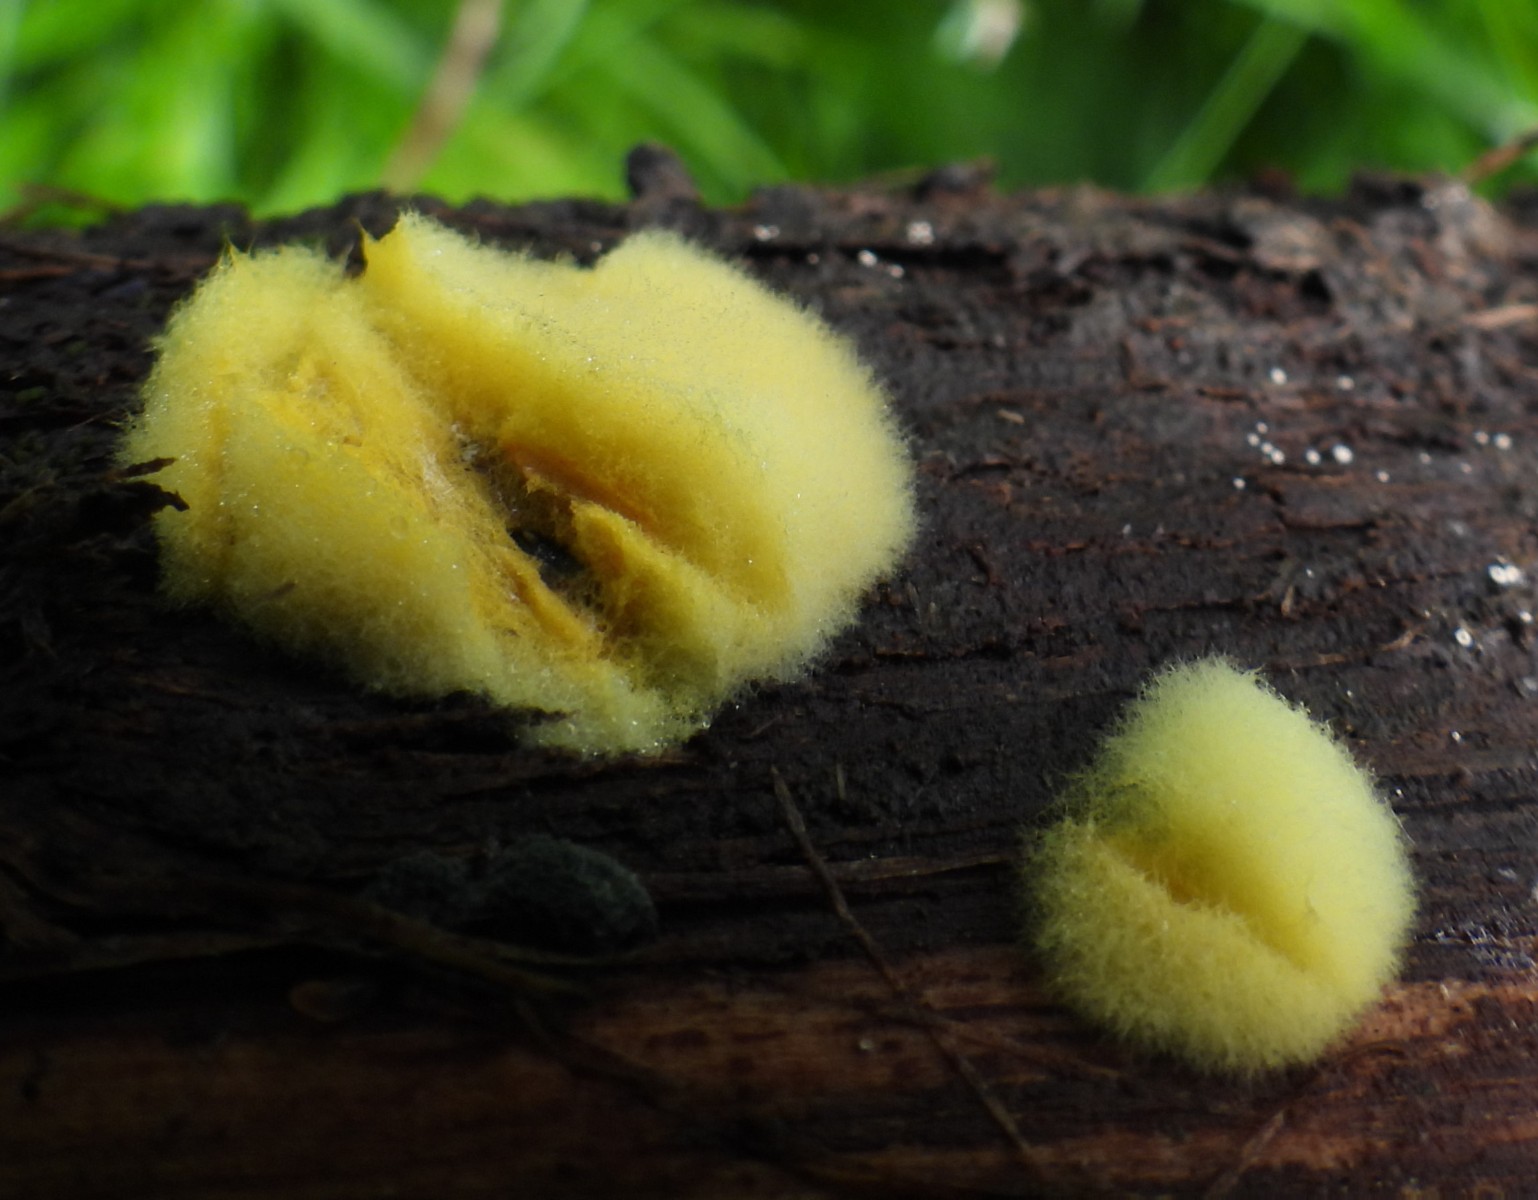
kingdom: Fungi
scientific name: Fungi
